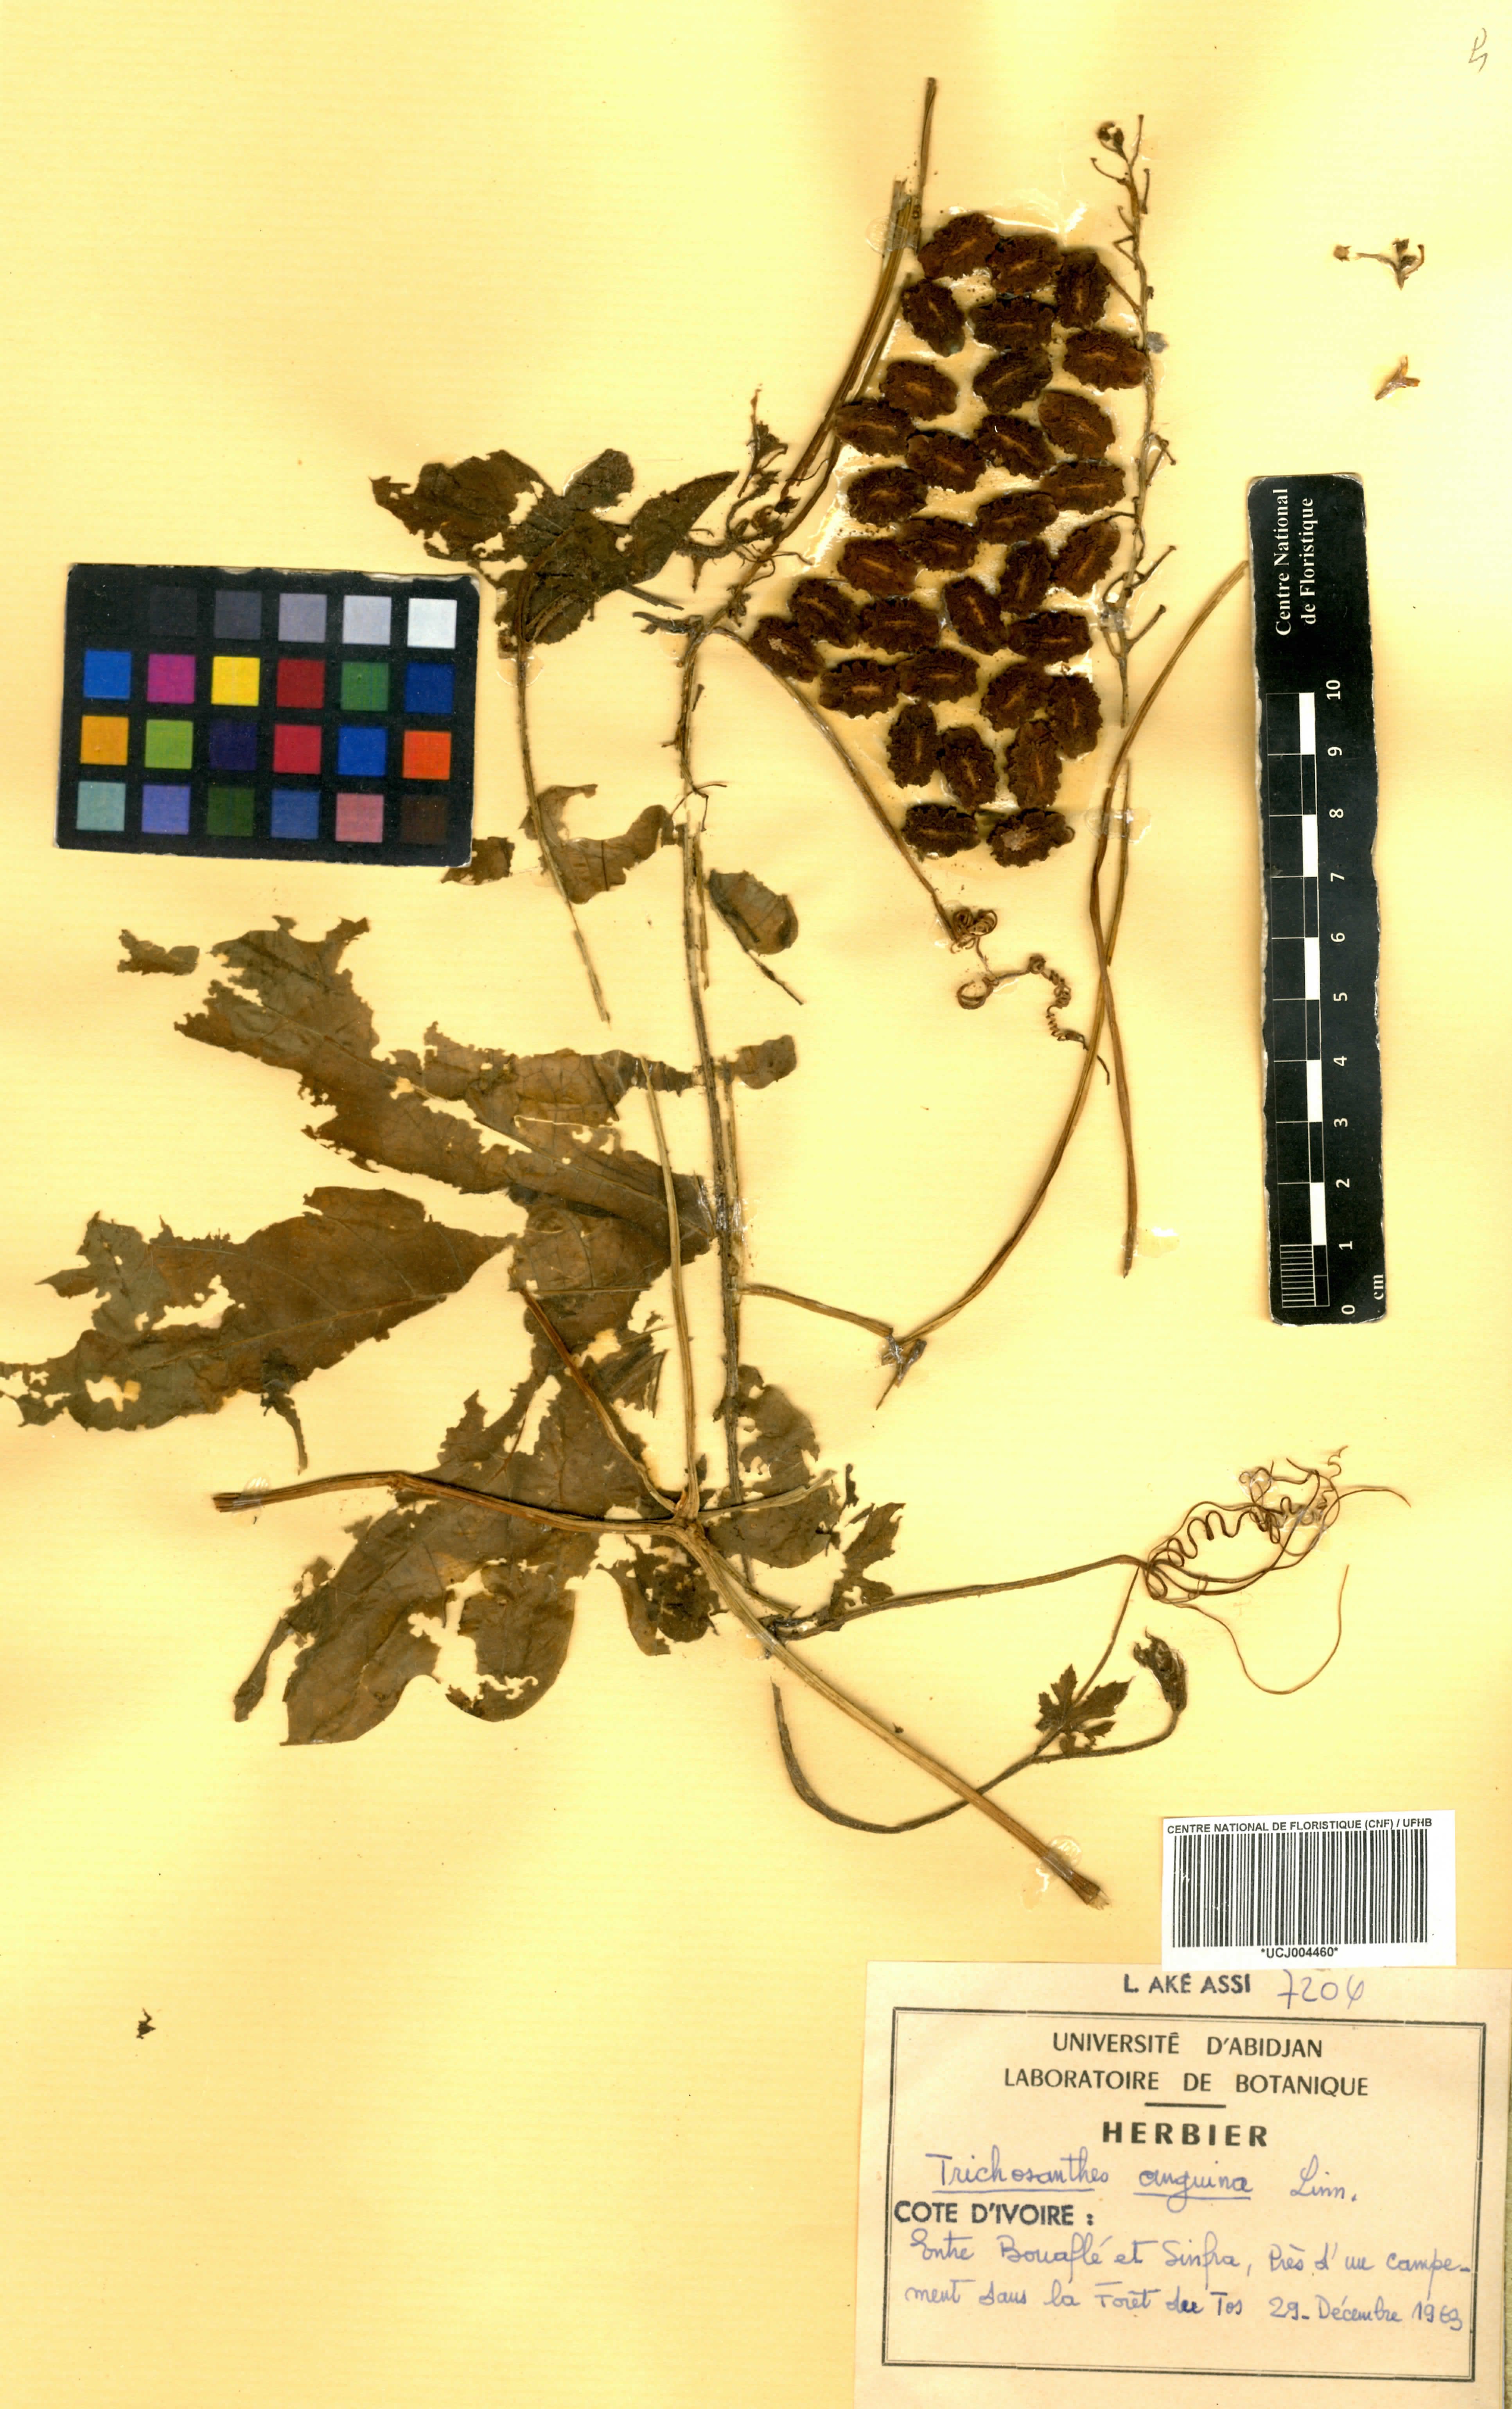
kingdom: Plantae
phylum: Tracheophyta
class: Magnoliopsida
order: Cucurbitales
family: Cucurbitaceae
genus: Trichosanthes
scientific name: Trichosanthes cucumerina
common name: Snakegourd
